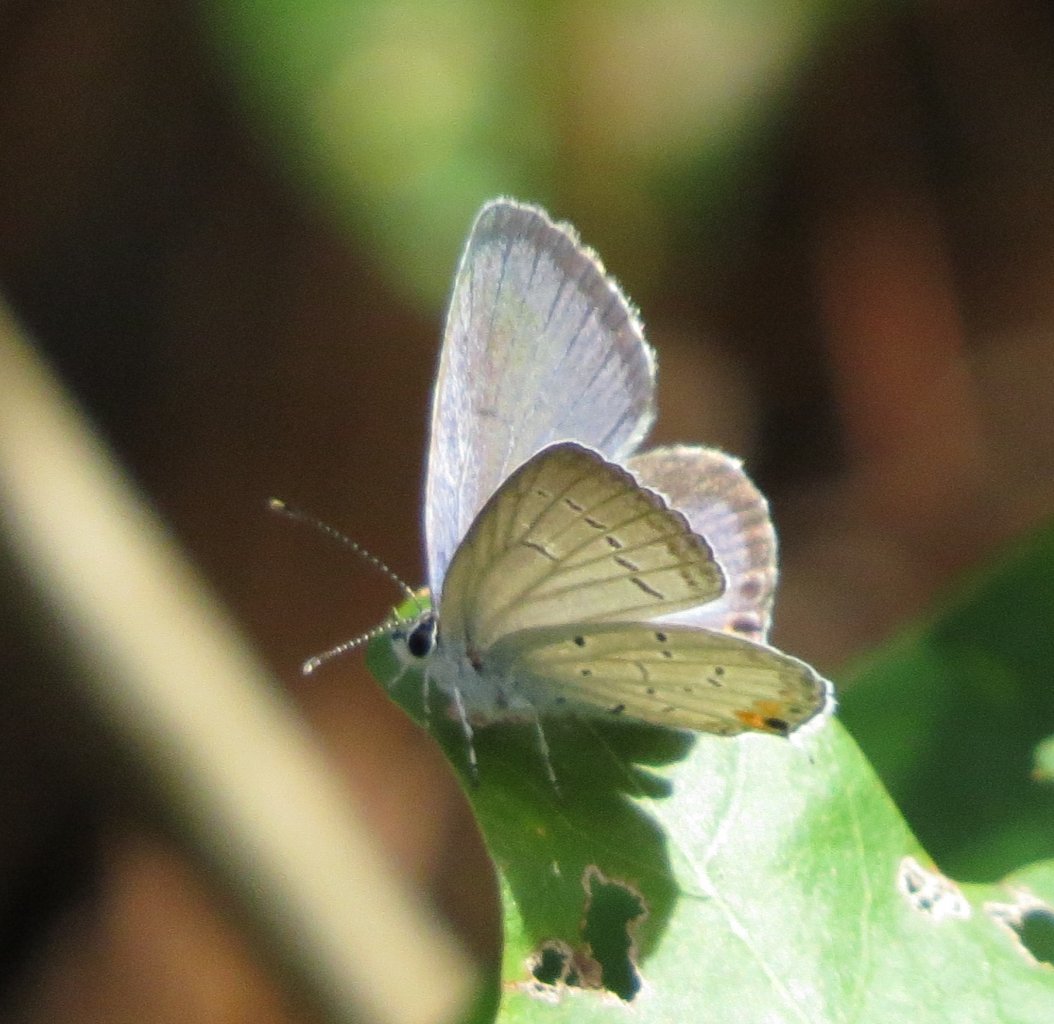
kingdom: Animalia
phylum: Arthropoda
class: Insecta
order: Lepidoptera
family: Lycaenidae
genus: Elkalyce
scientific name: Elkalyce comyntas
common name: Eastern Tailed-Blue
